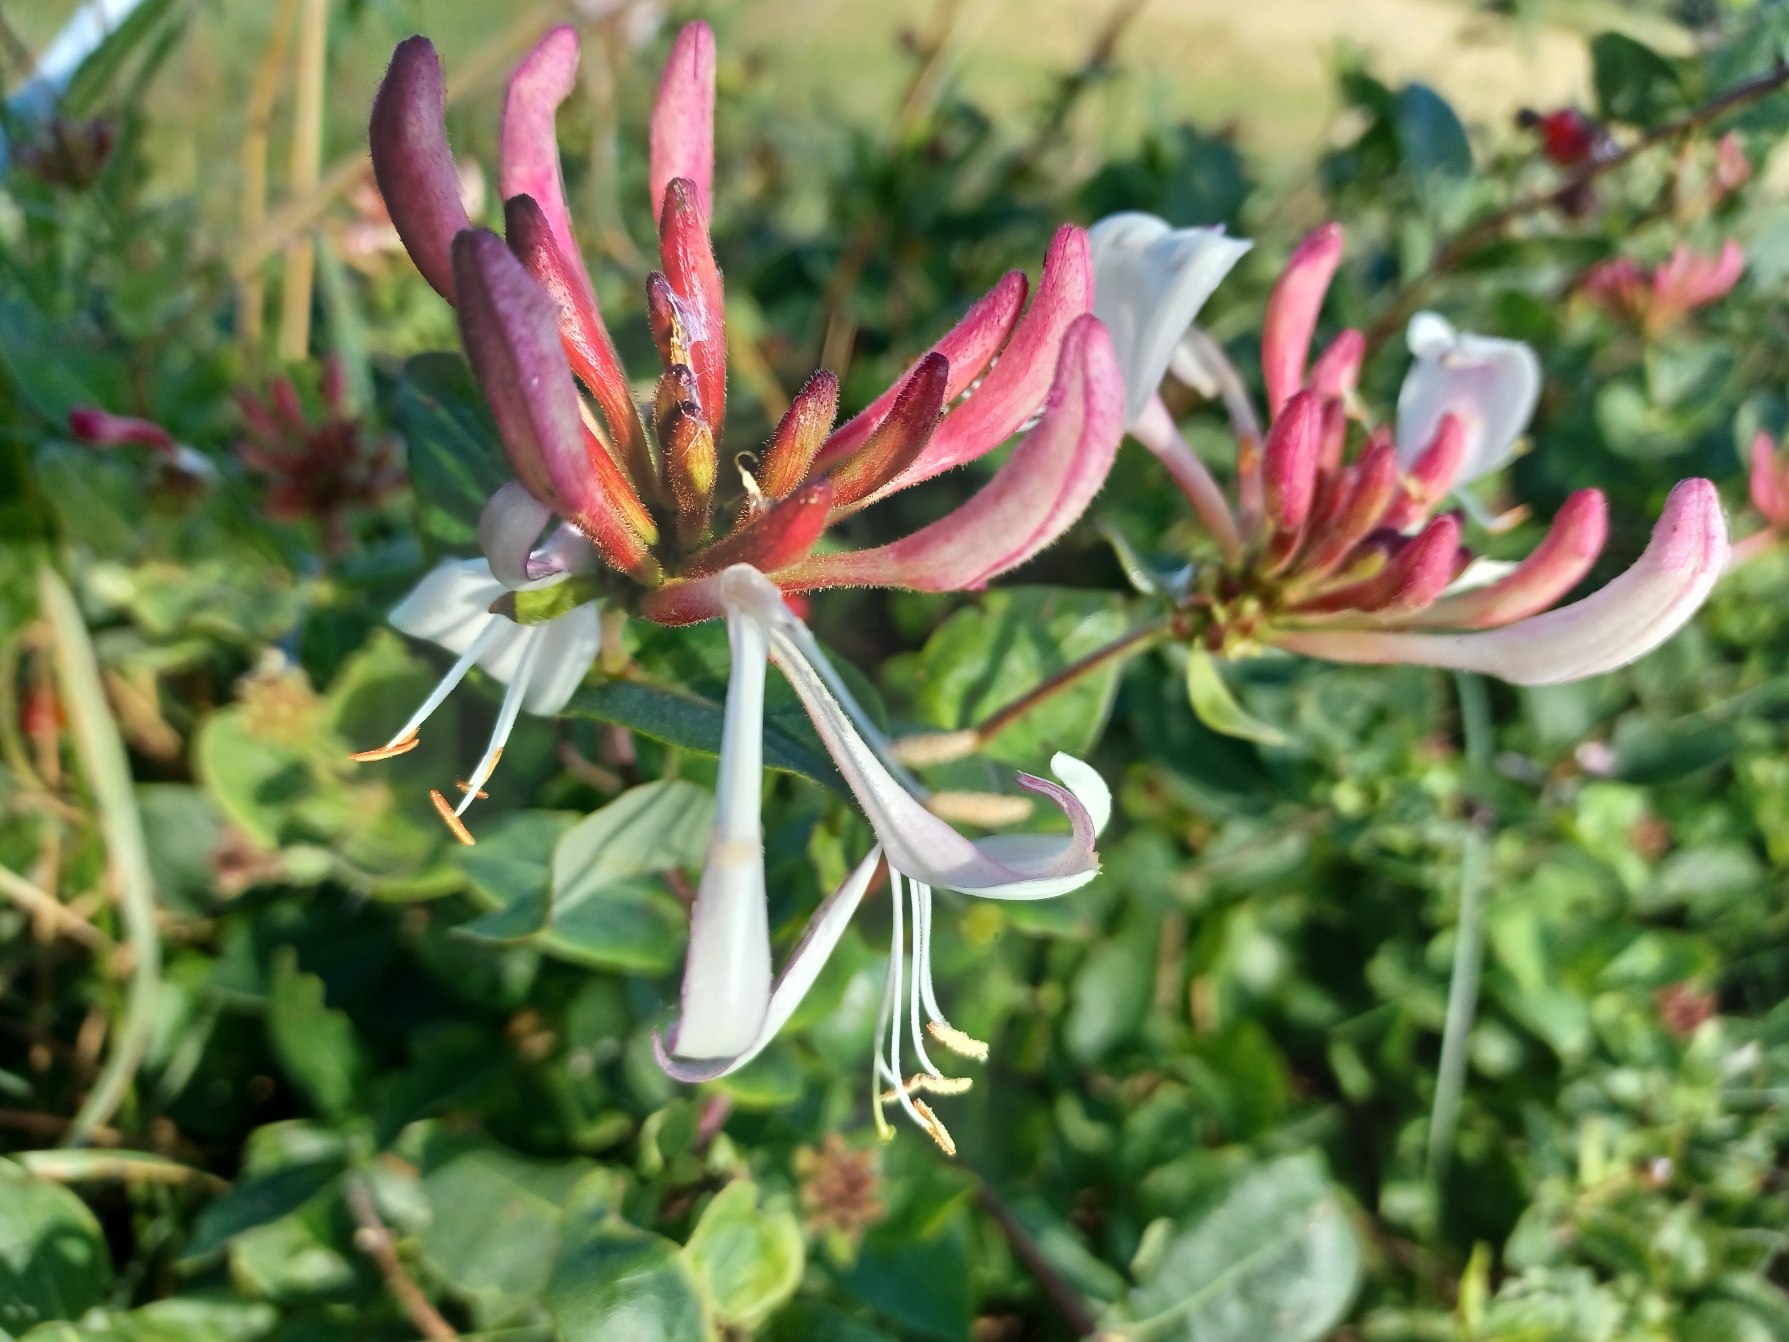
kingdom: Plantae
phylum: Tracheophyta
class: Magnoliopsida
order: Dipsacales
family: Caprifoliaceae
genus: Lonicera
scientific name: Lonicera periclymenum
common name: Almindelig gedeblad
